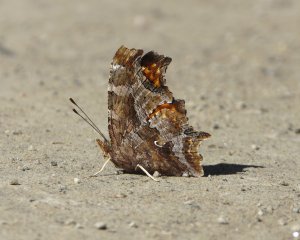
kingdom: Animalia
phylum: Arthropoda
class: Insecta
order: Lepidoptera
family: Nymphalidae
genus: Polygonia
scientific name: Polygonia comma
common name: Eastern Comma
